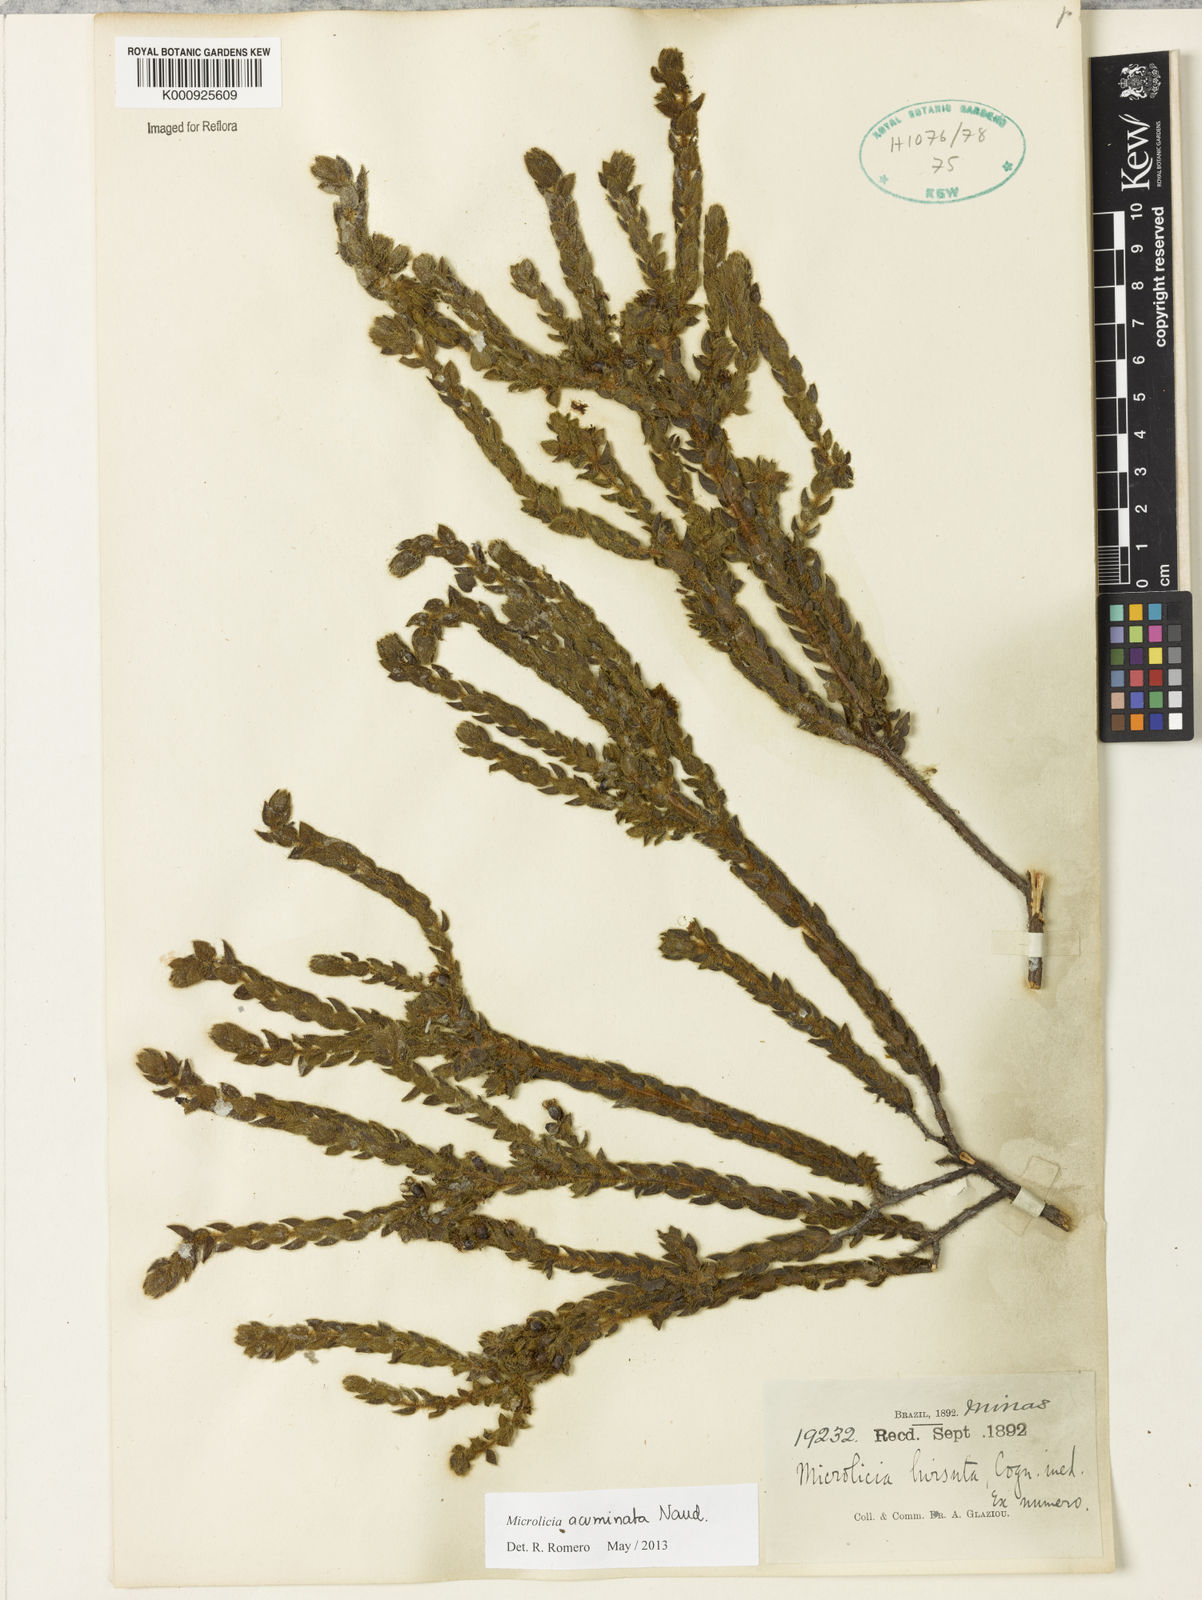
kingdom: Plantae
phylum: Tracheophyta
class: Magnoliopsida
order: Myrtales
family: Melastomataceae
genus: Microlicia
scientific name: Microlicia hirticalyx
